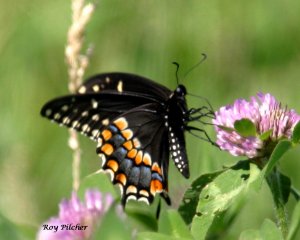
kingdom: Animalia
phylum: Arthropoda
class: Insecta
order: Lepidoptera
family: Papilionidae
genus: Papilio
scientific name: Papilio polyxenes
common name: Black Swallowtail
